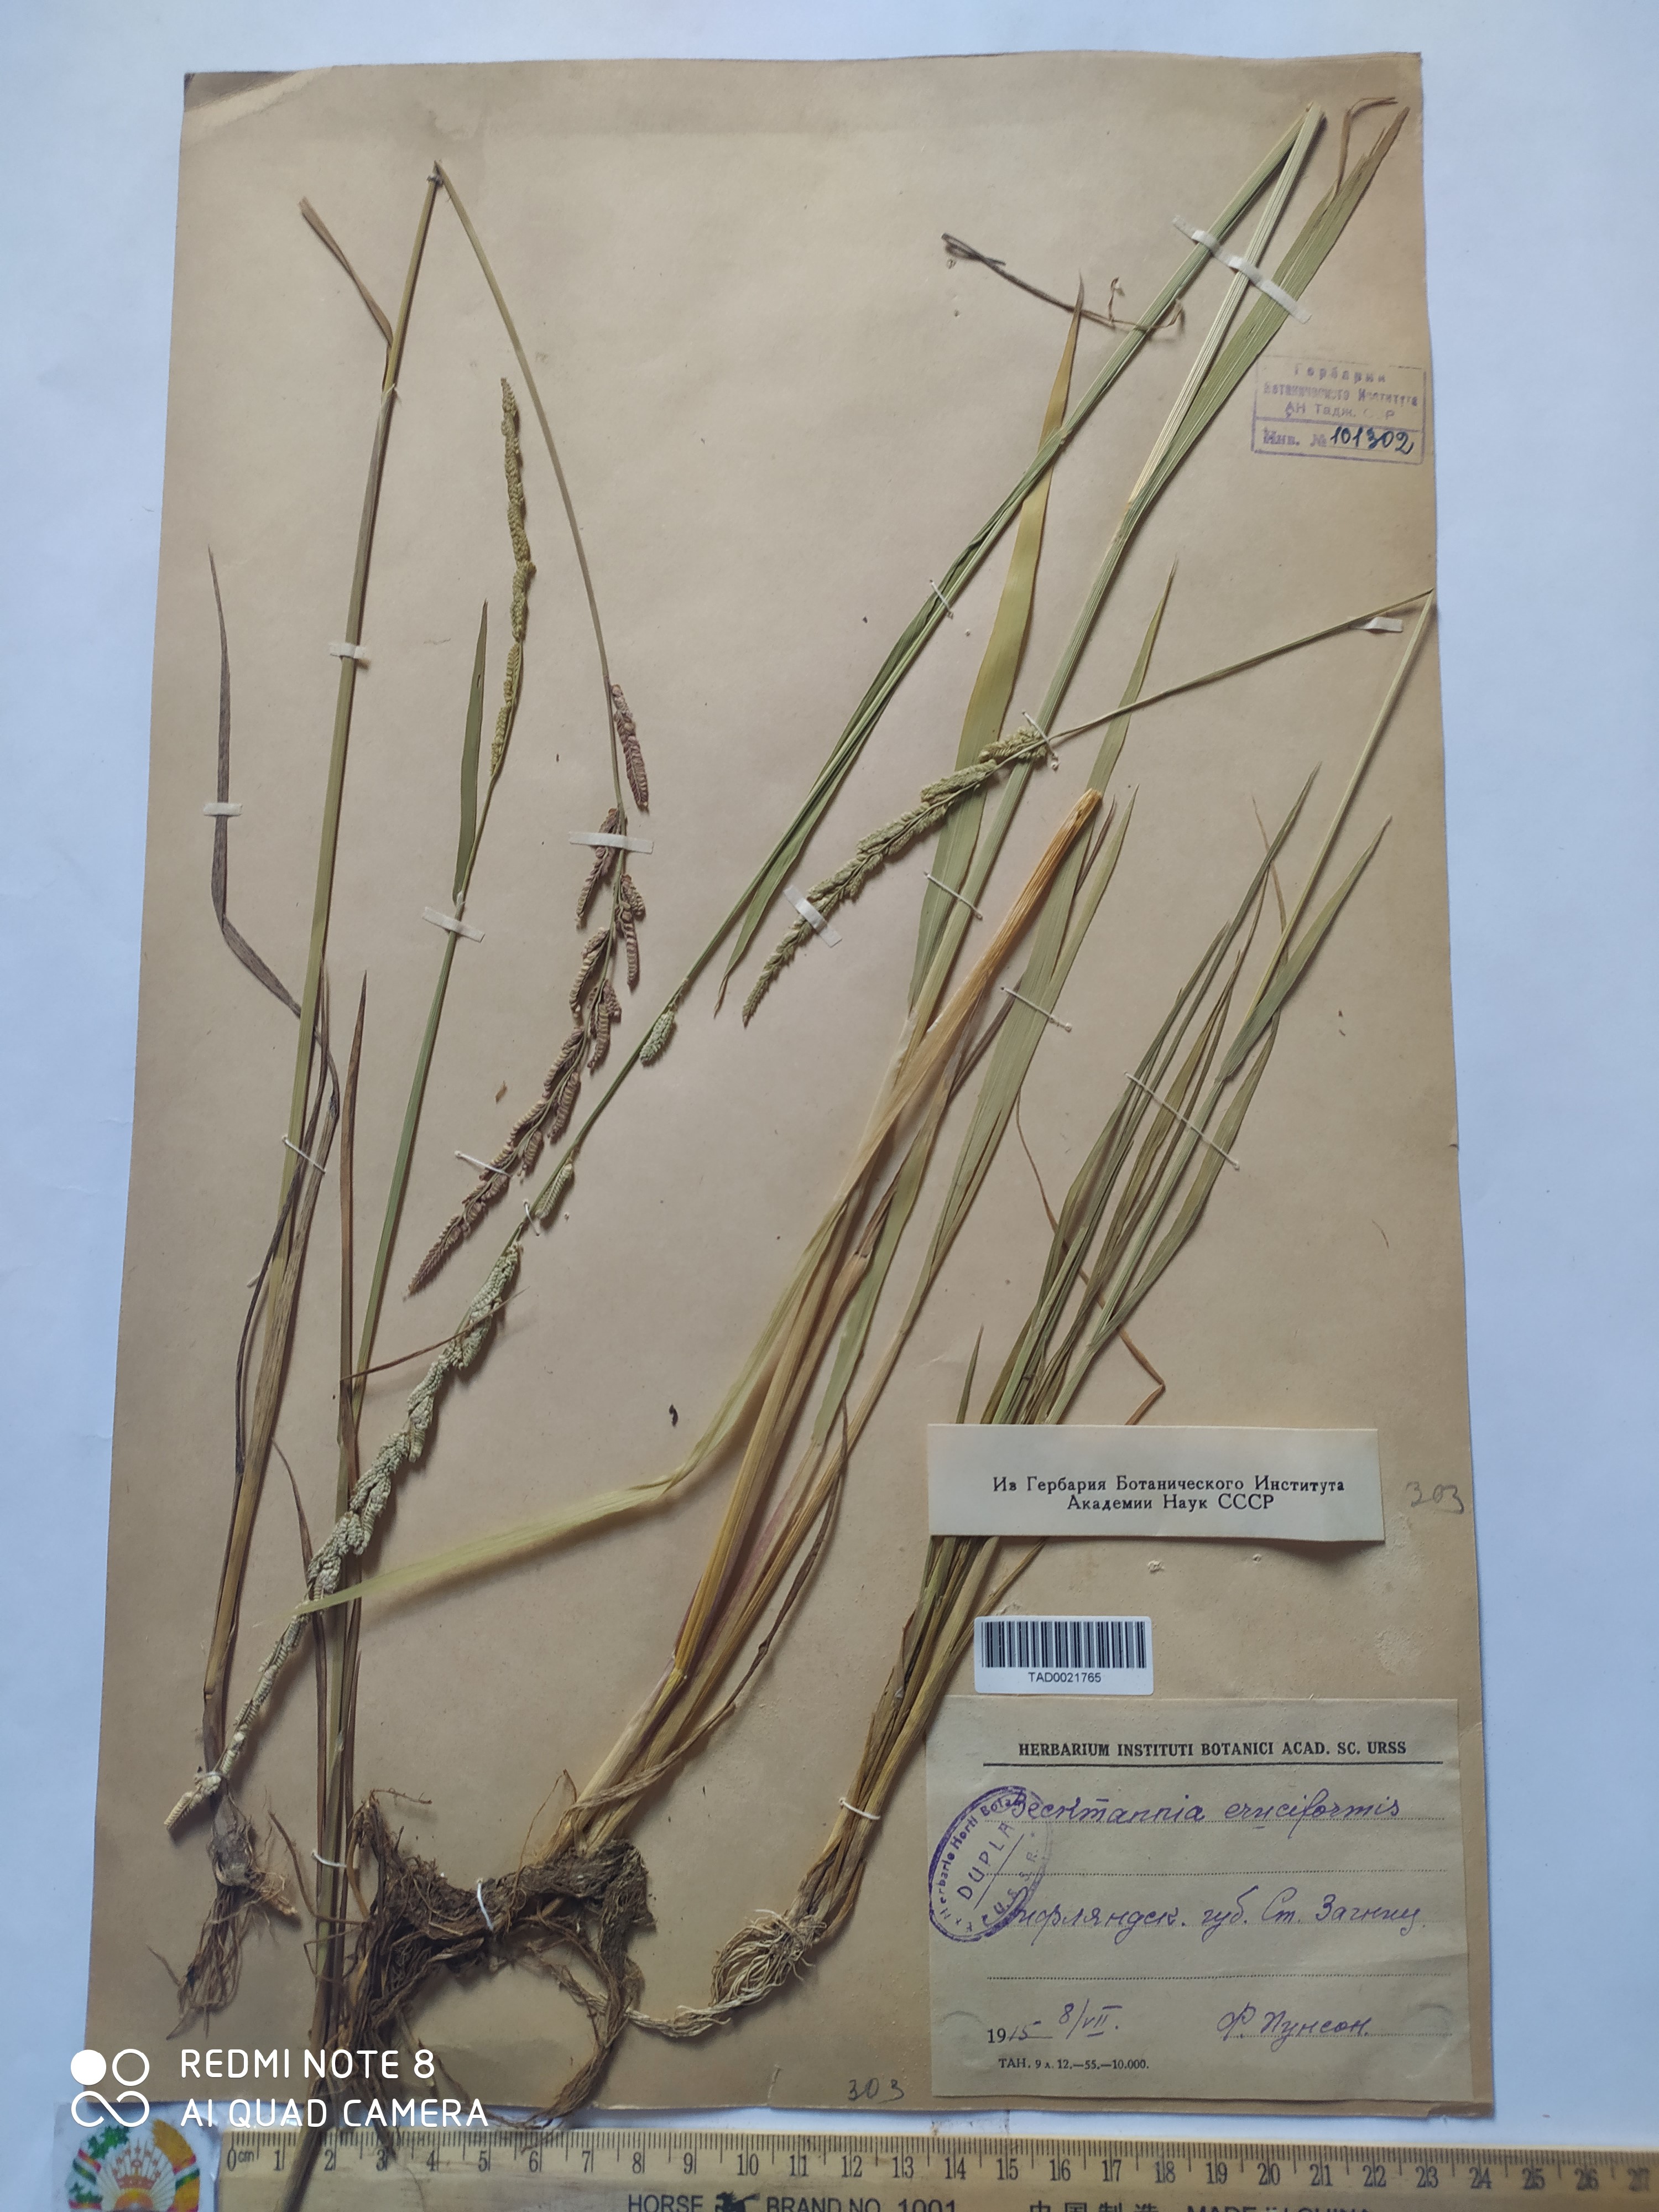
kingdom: Plantae
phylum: Tracheophyta
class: Liliopsida
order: Poales
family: Poaceae
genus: Enneapogon
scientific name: Enneapogon persicus
